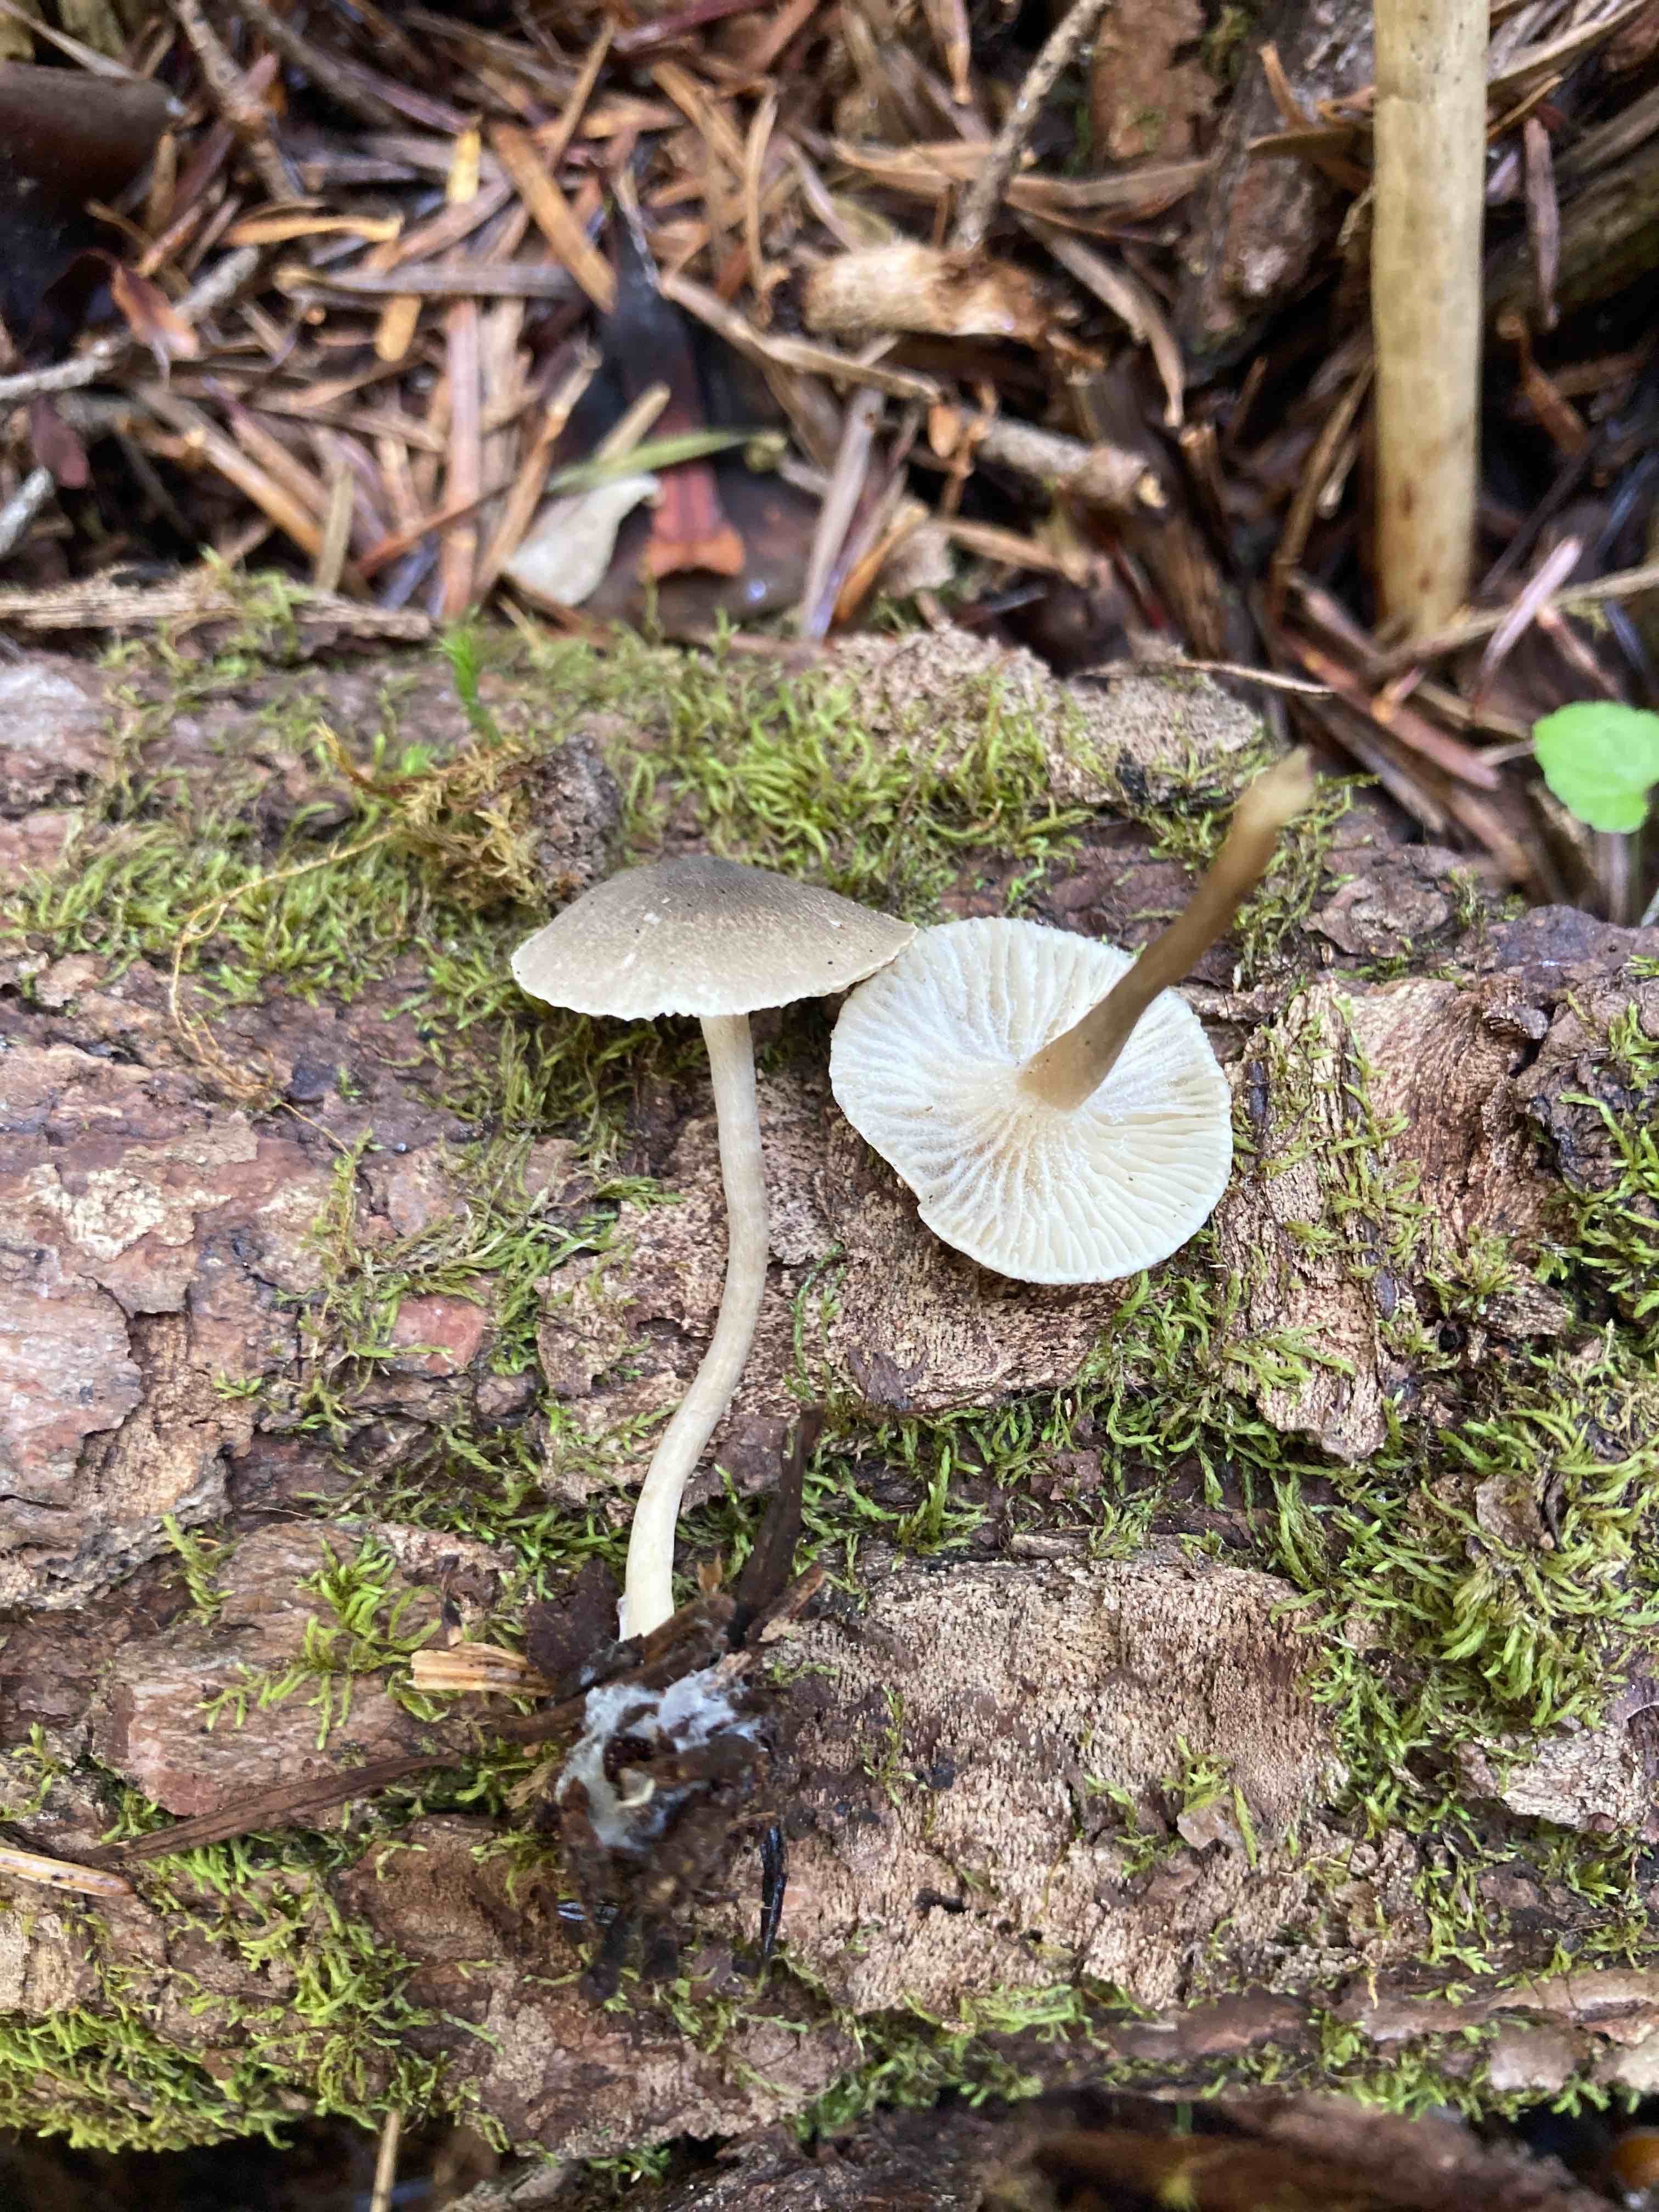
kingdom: Fungi
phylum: Basidiomycota
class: Agaricomycetes
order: Agaricales
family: Hygrophoraceae
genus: Spodocybe
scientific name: Spodocybe trulliformis
